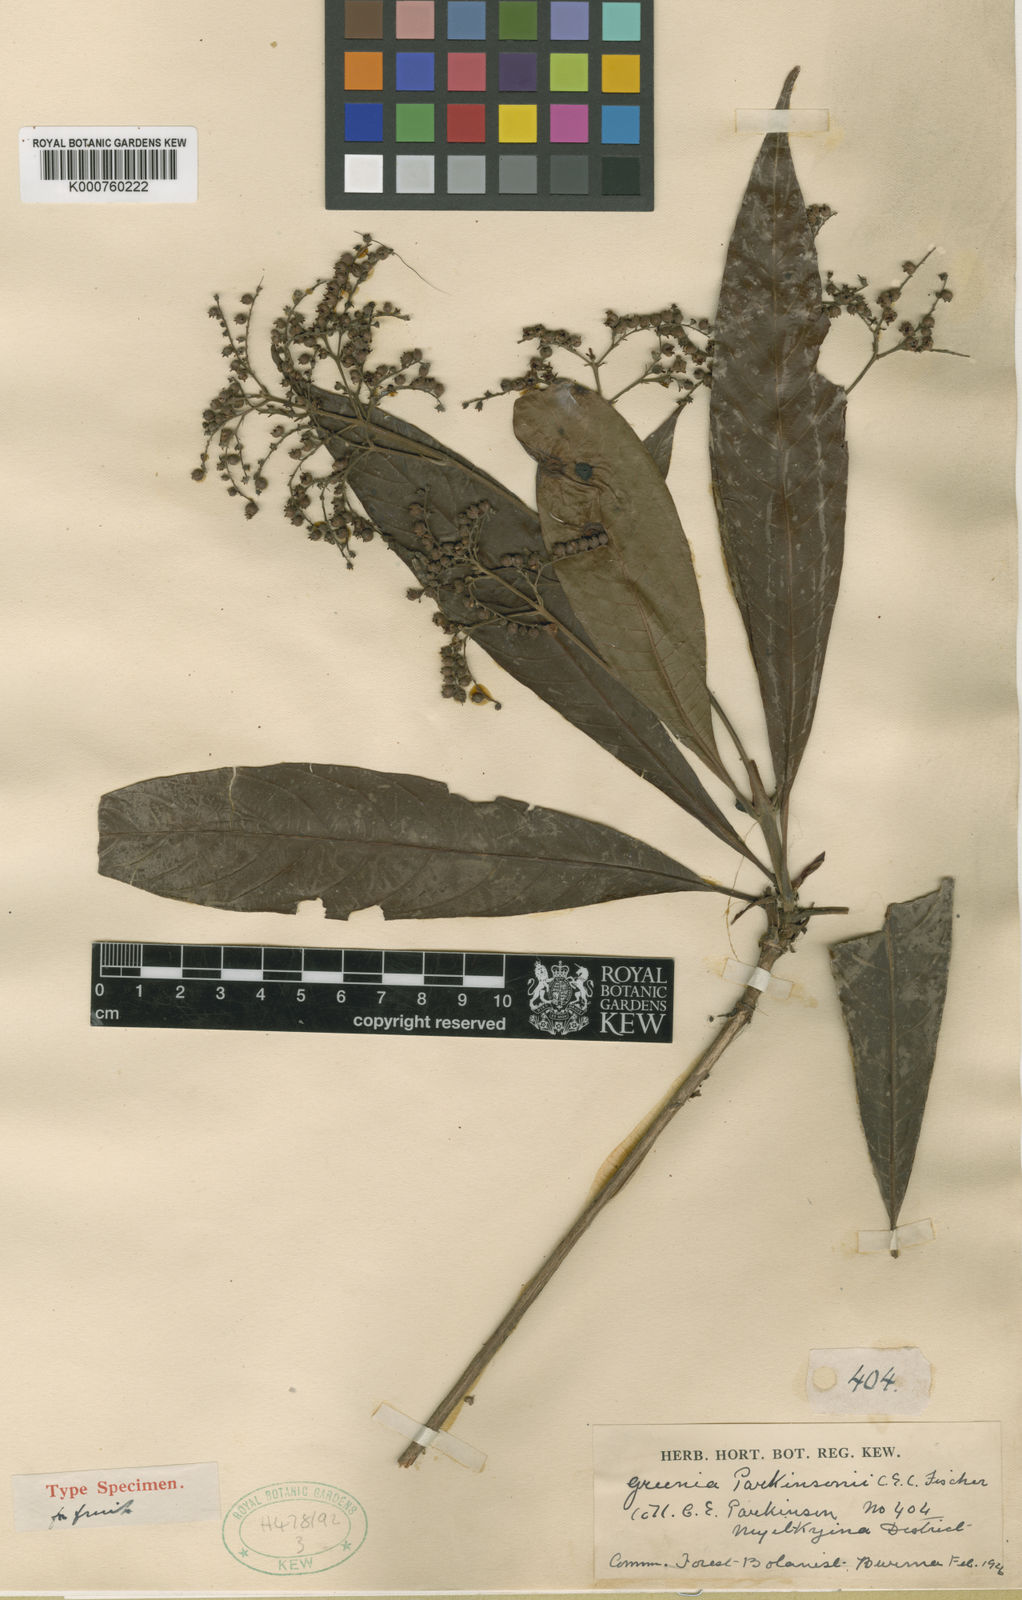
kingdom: Plantae
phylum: Tracheophyta
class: Magnoliopsida
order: Gentianales
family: Rubiaceae
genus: Greenea
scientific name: Greenea parkinsonii
